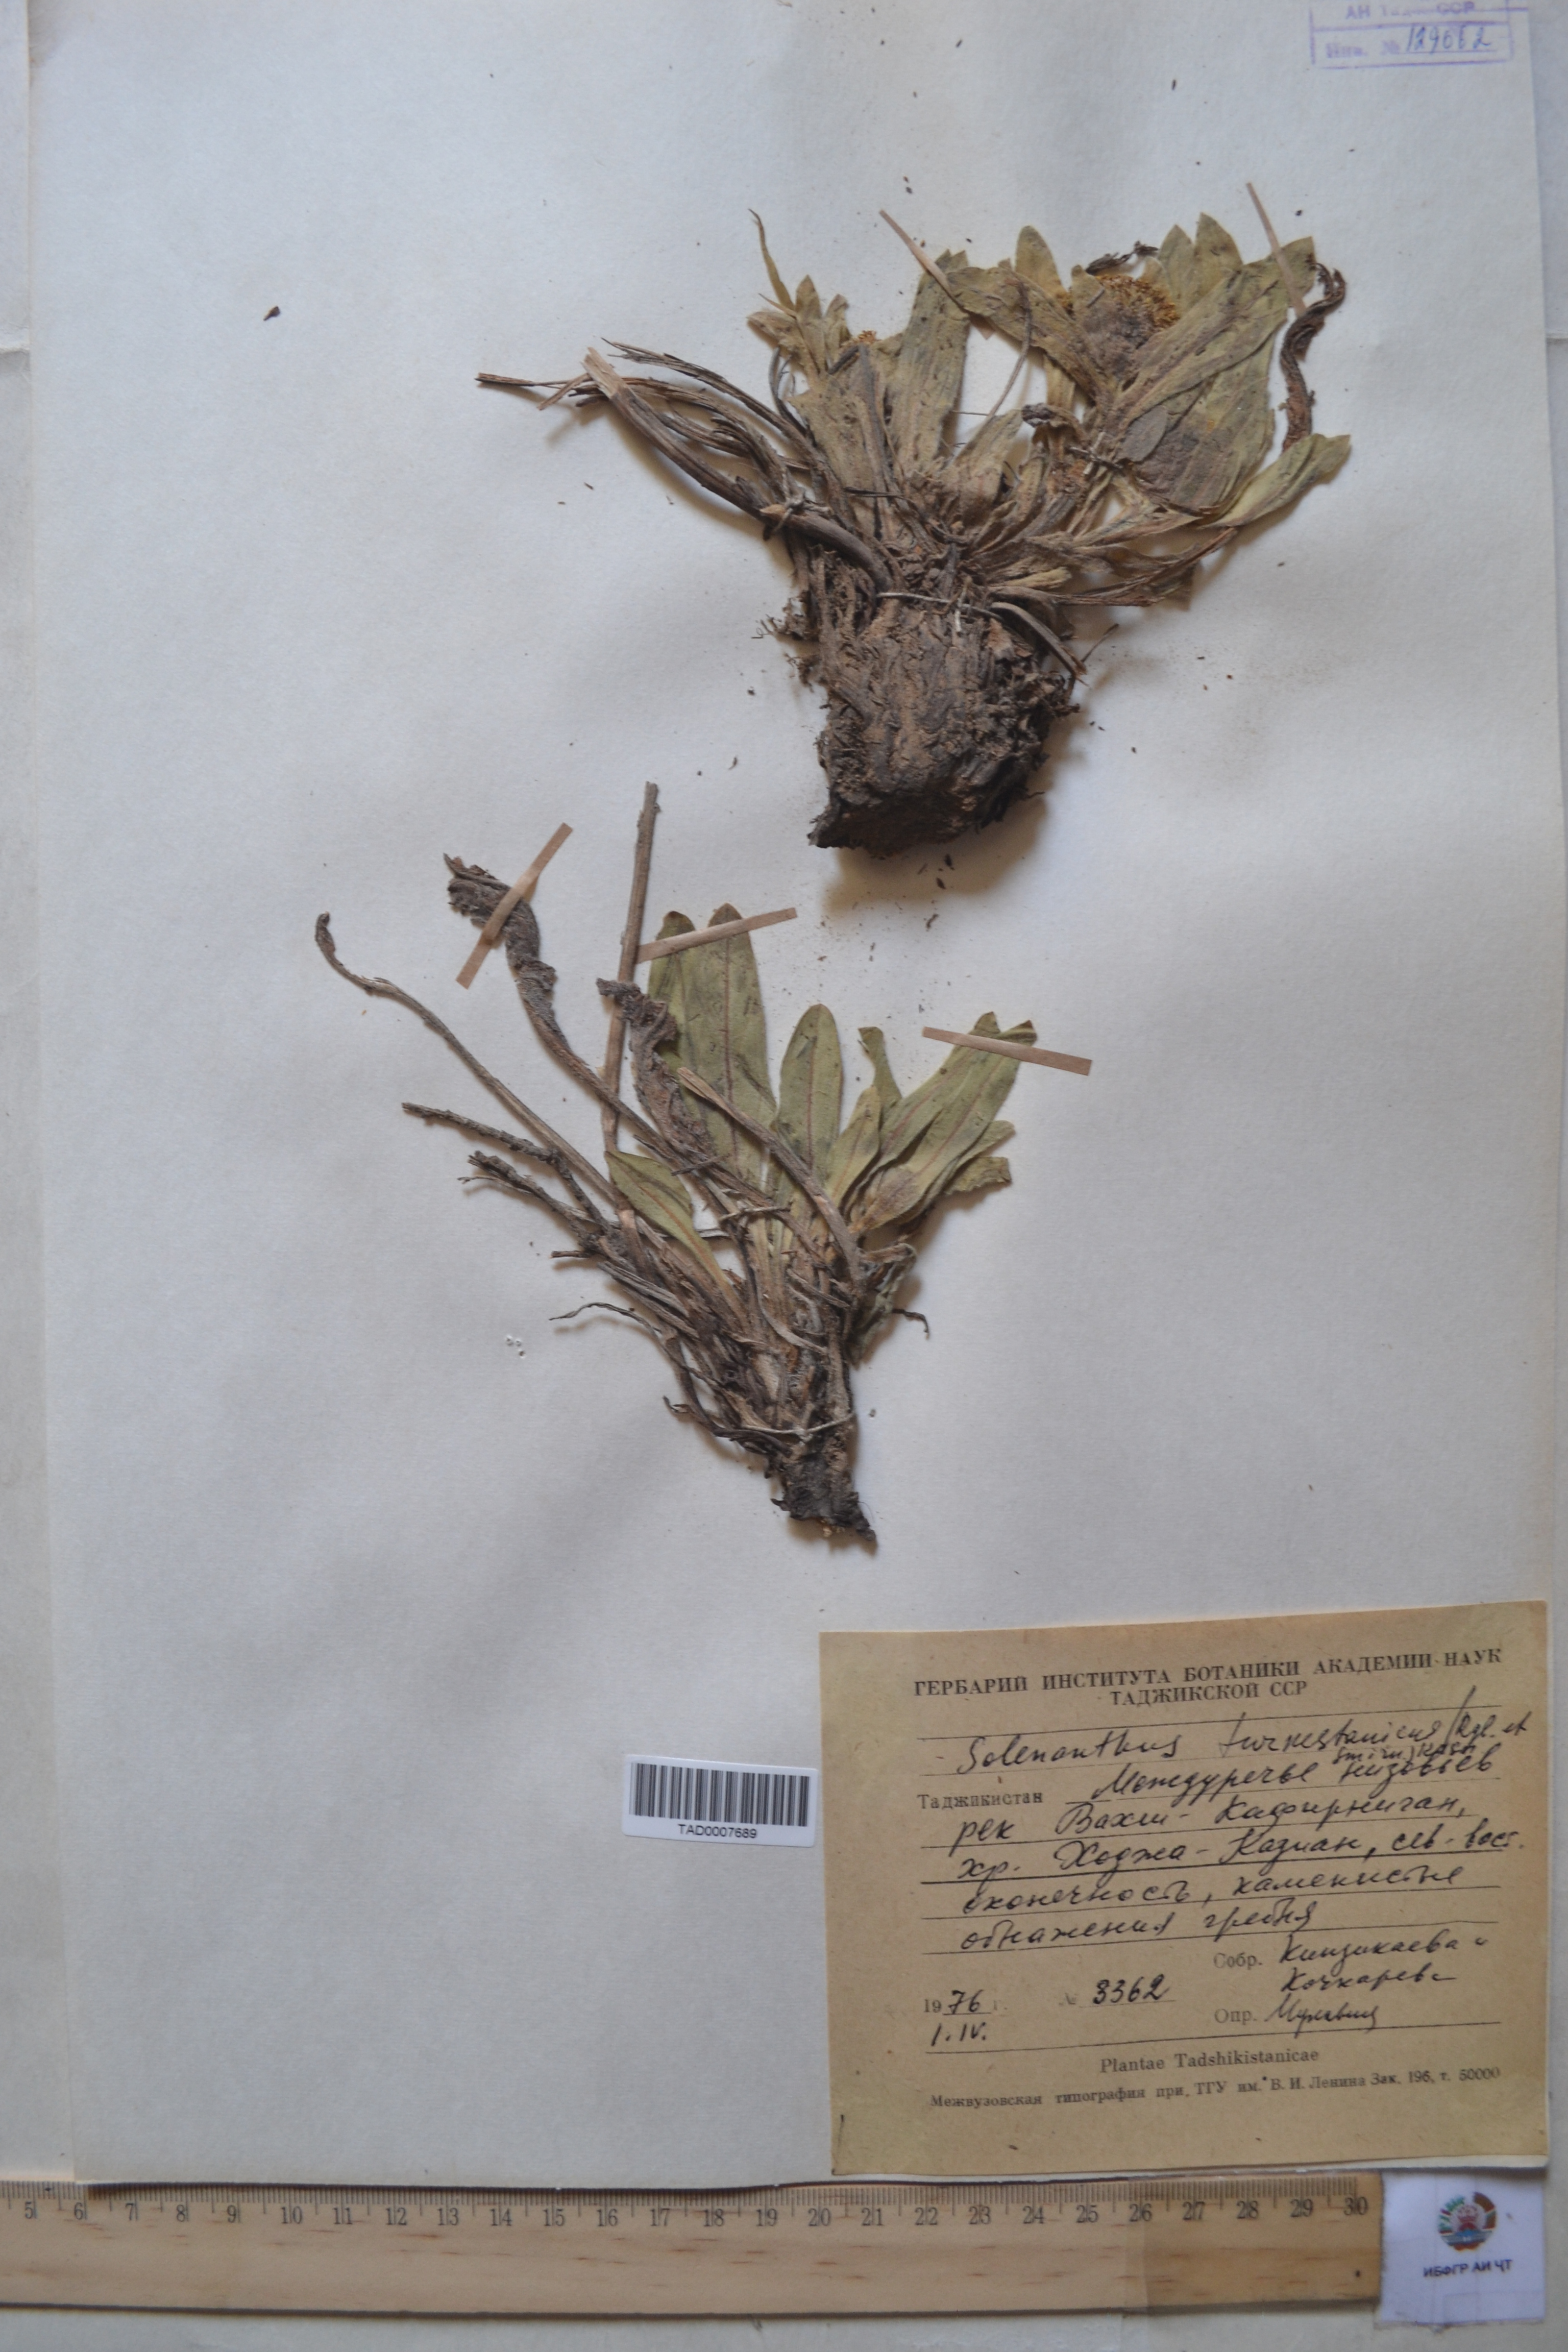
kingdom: Plantae
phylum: Tracheophyta
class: Magnoliopsida
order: Boraginales
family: Boraginaceae
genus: Solenanthus
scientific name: Solenanthus turkestanicus
